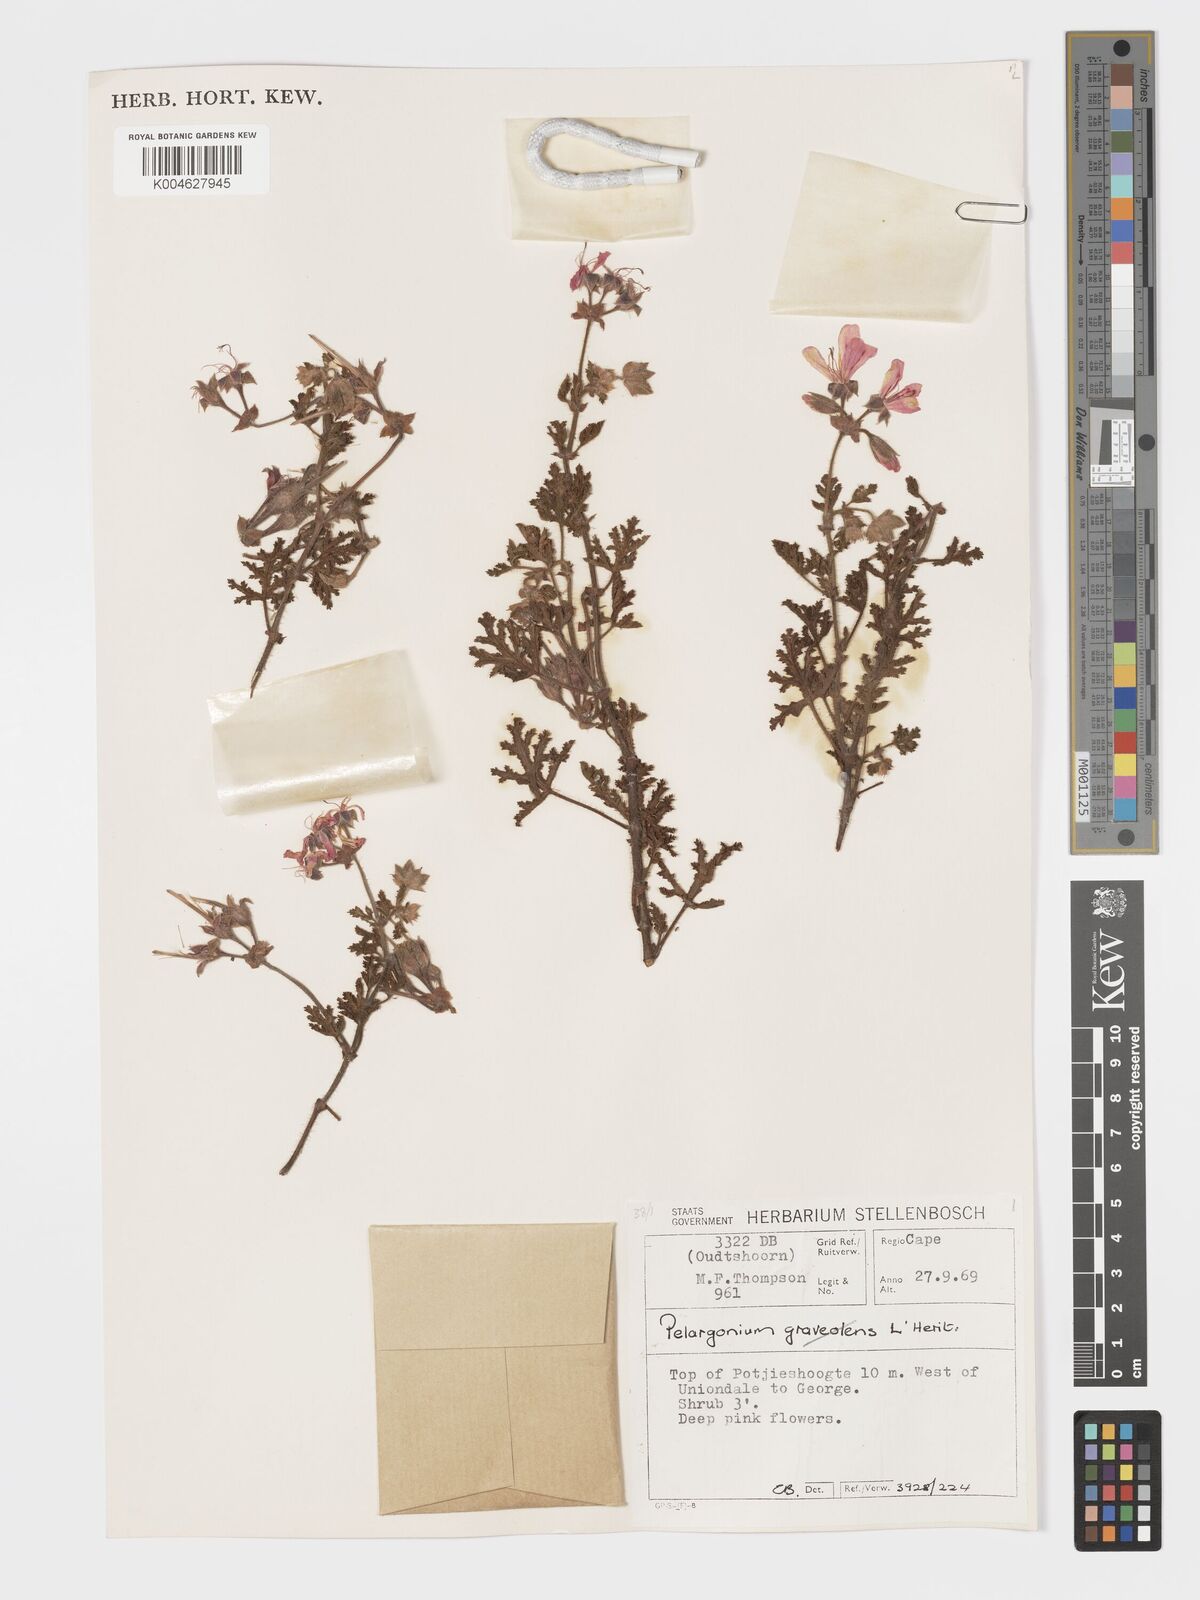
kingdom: Plantae
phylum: Tracheophyta
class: Magnoliopsida
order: Geraniales
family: Geraniaceae
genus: Pelargonium
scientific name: Pelargonium quercifolium
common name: Oakleaf geranium
